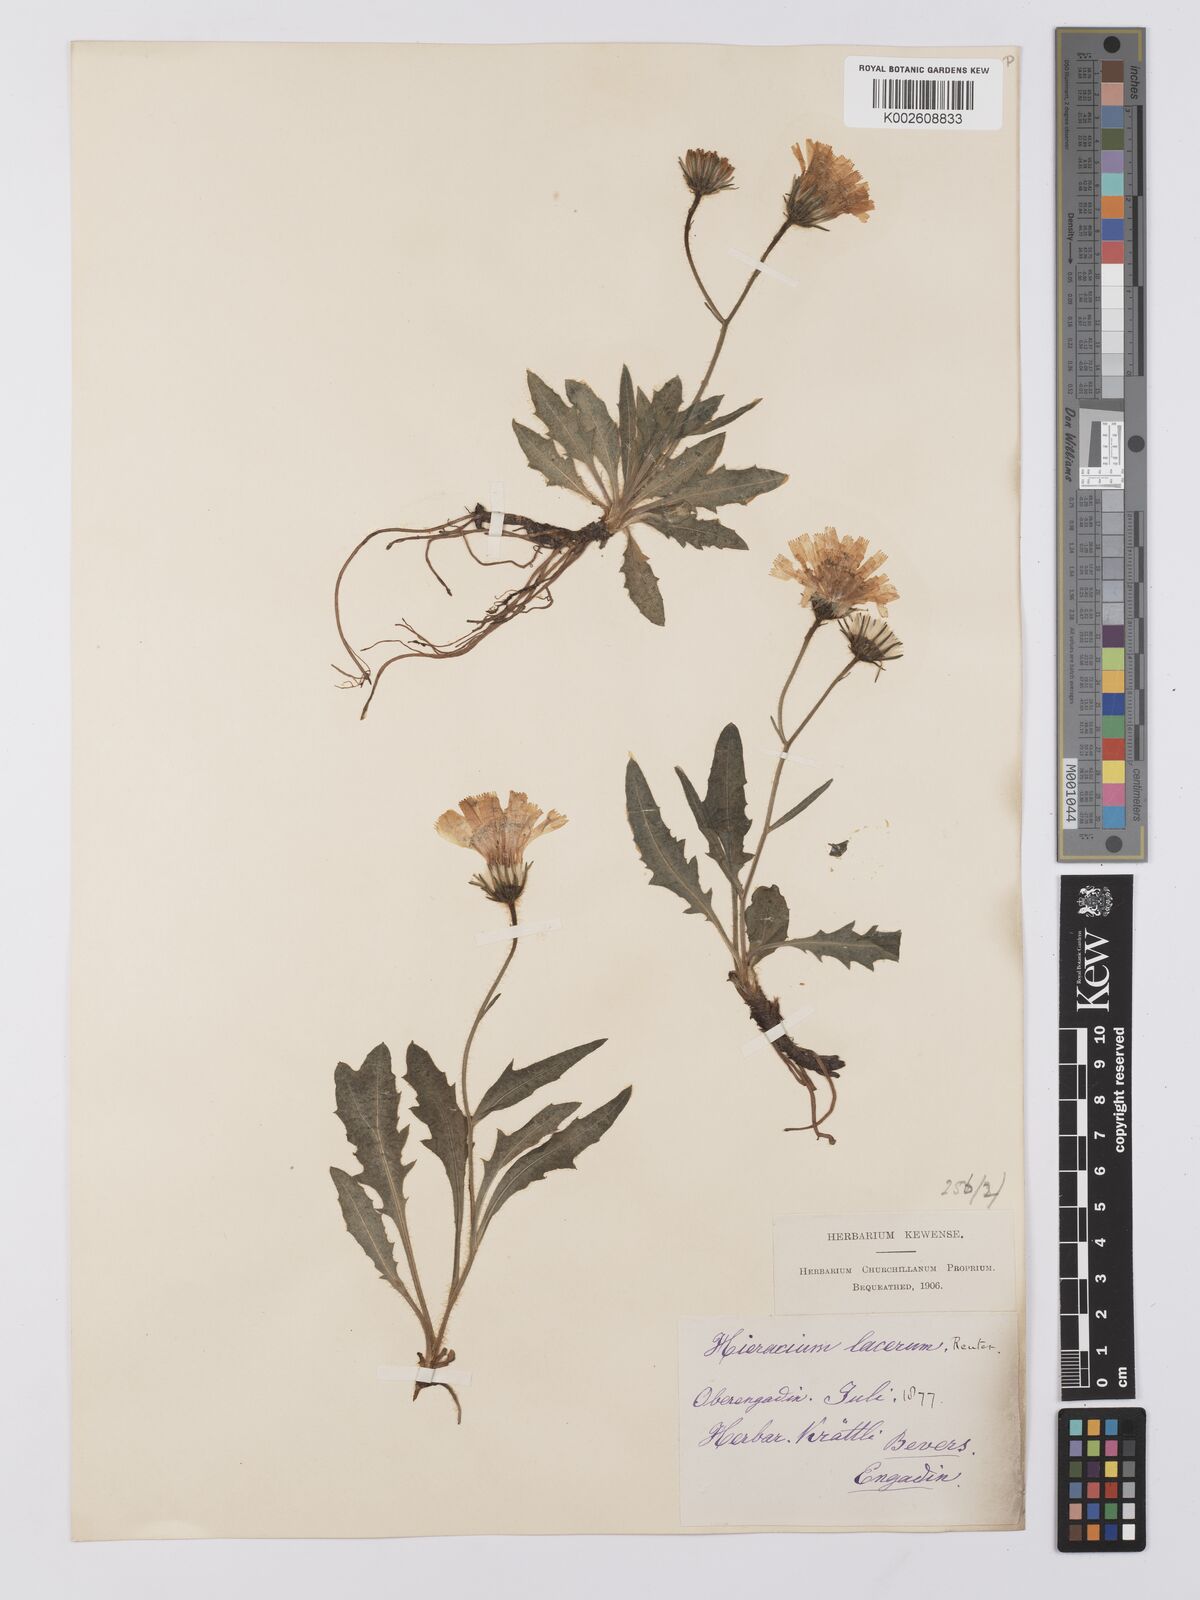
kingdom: Plantae
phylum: Tracheophyta
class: Magnoliopsida
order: Asterales
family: Asteraceae
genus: Hieracium
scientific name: Hieracium cottetii
